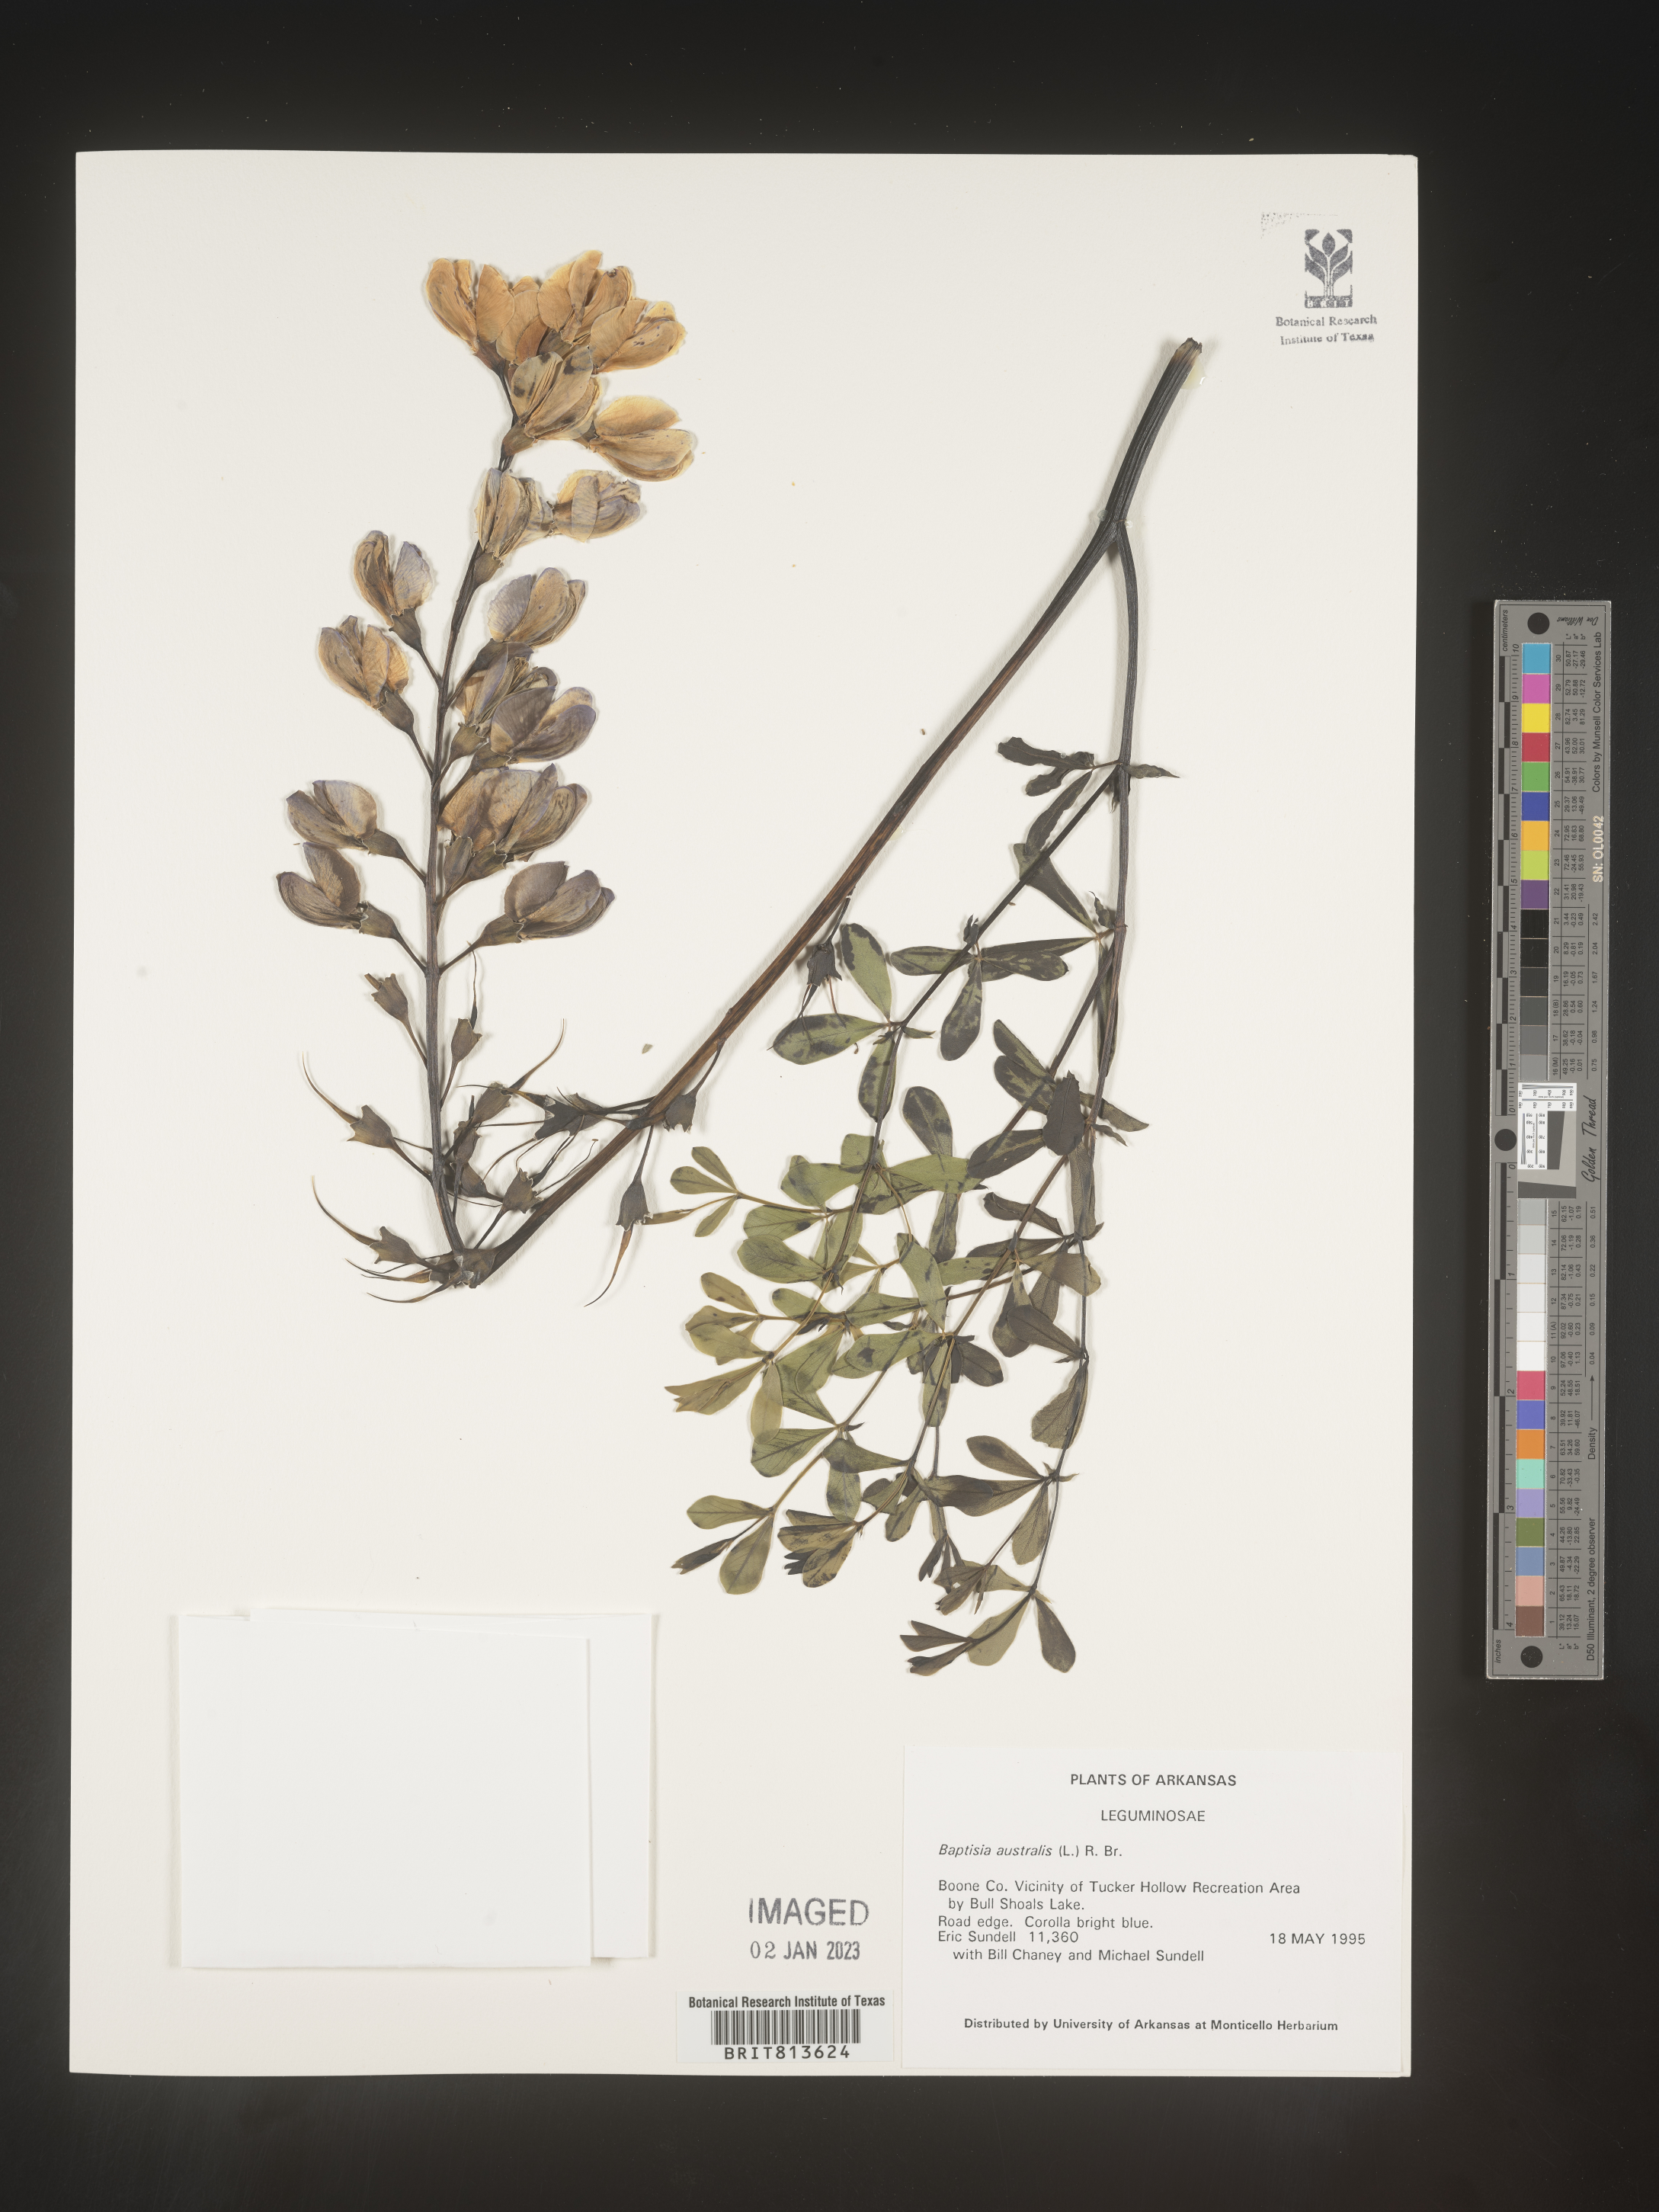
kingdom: Plantae
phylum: Tracheophyta
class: Magnoliopsida
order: Fabales
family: Fabaceae
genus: Baptisia
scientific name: Baptisia australis
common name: Blue false indigo
